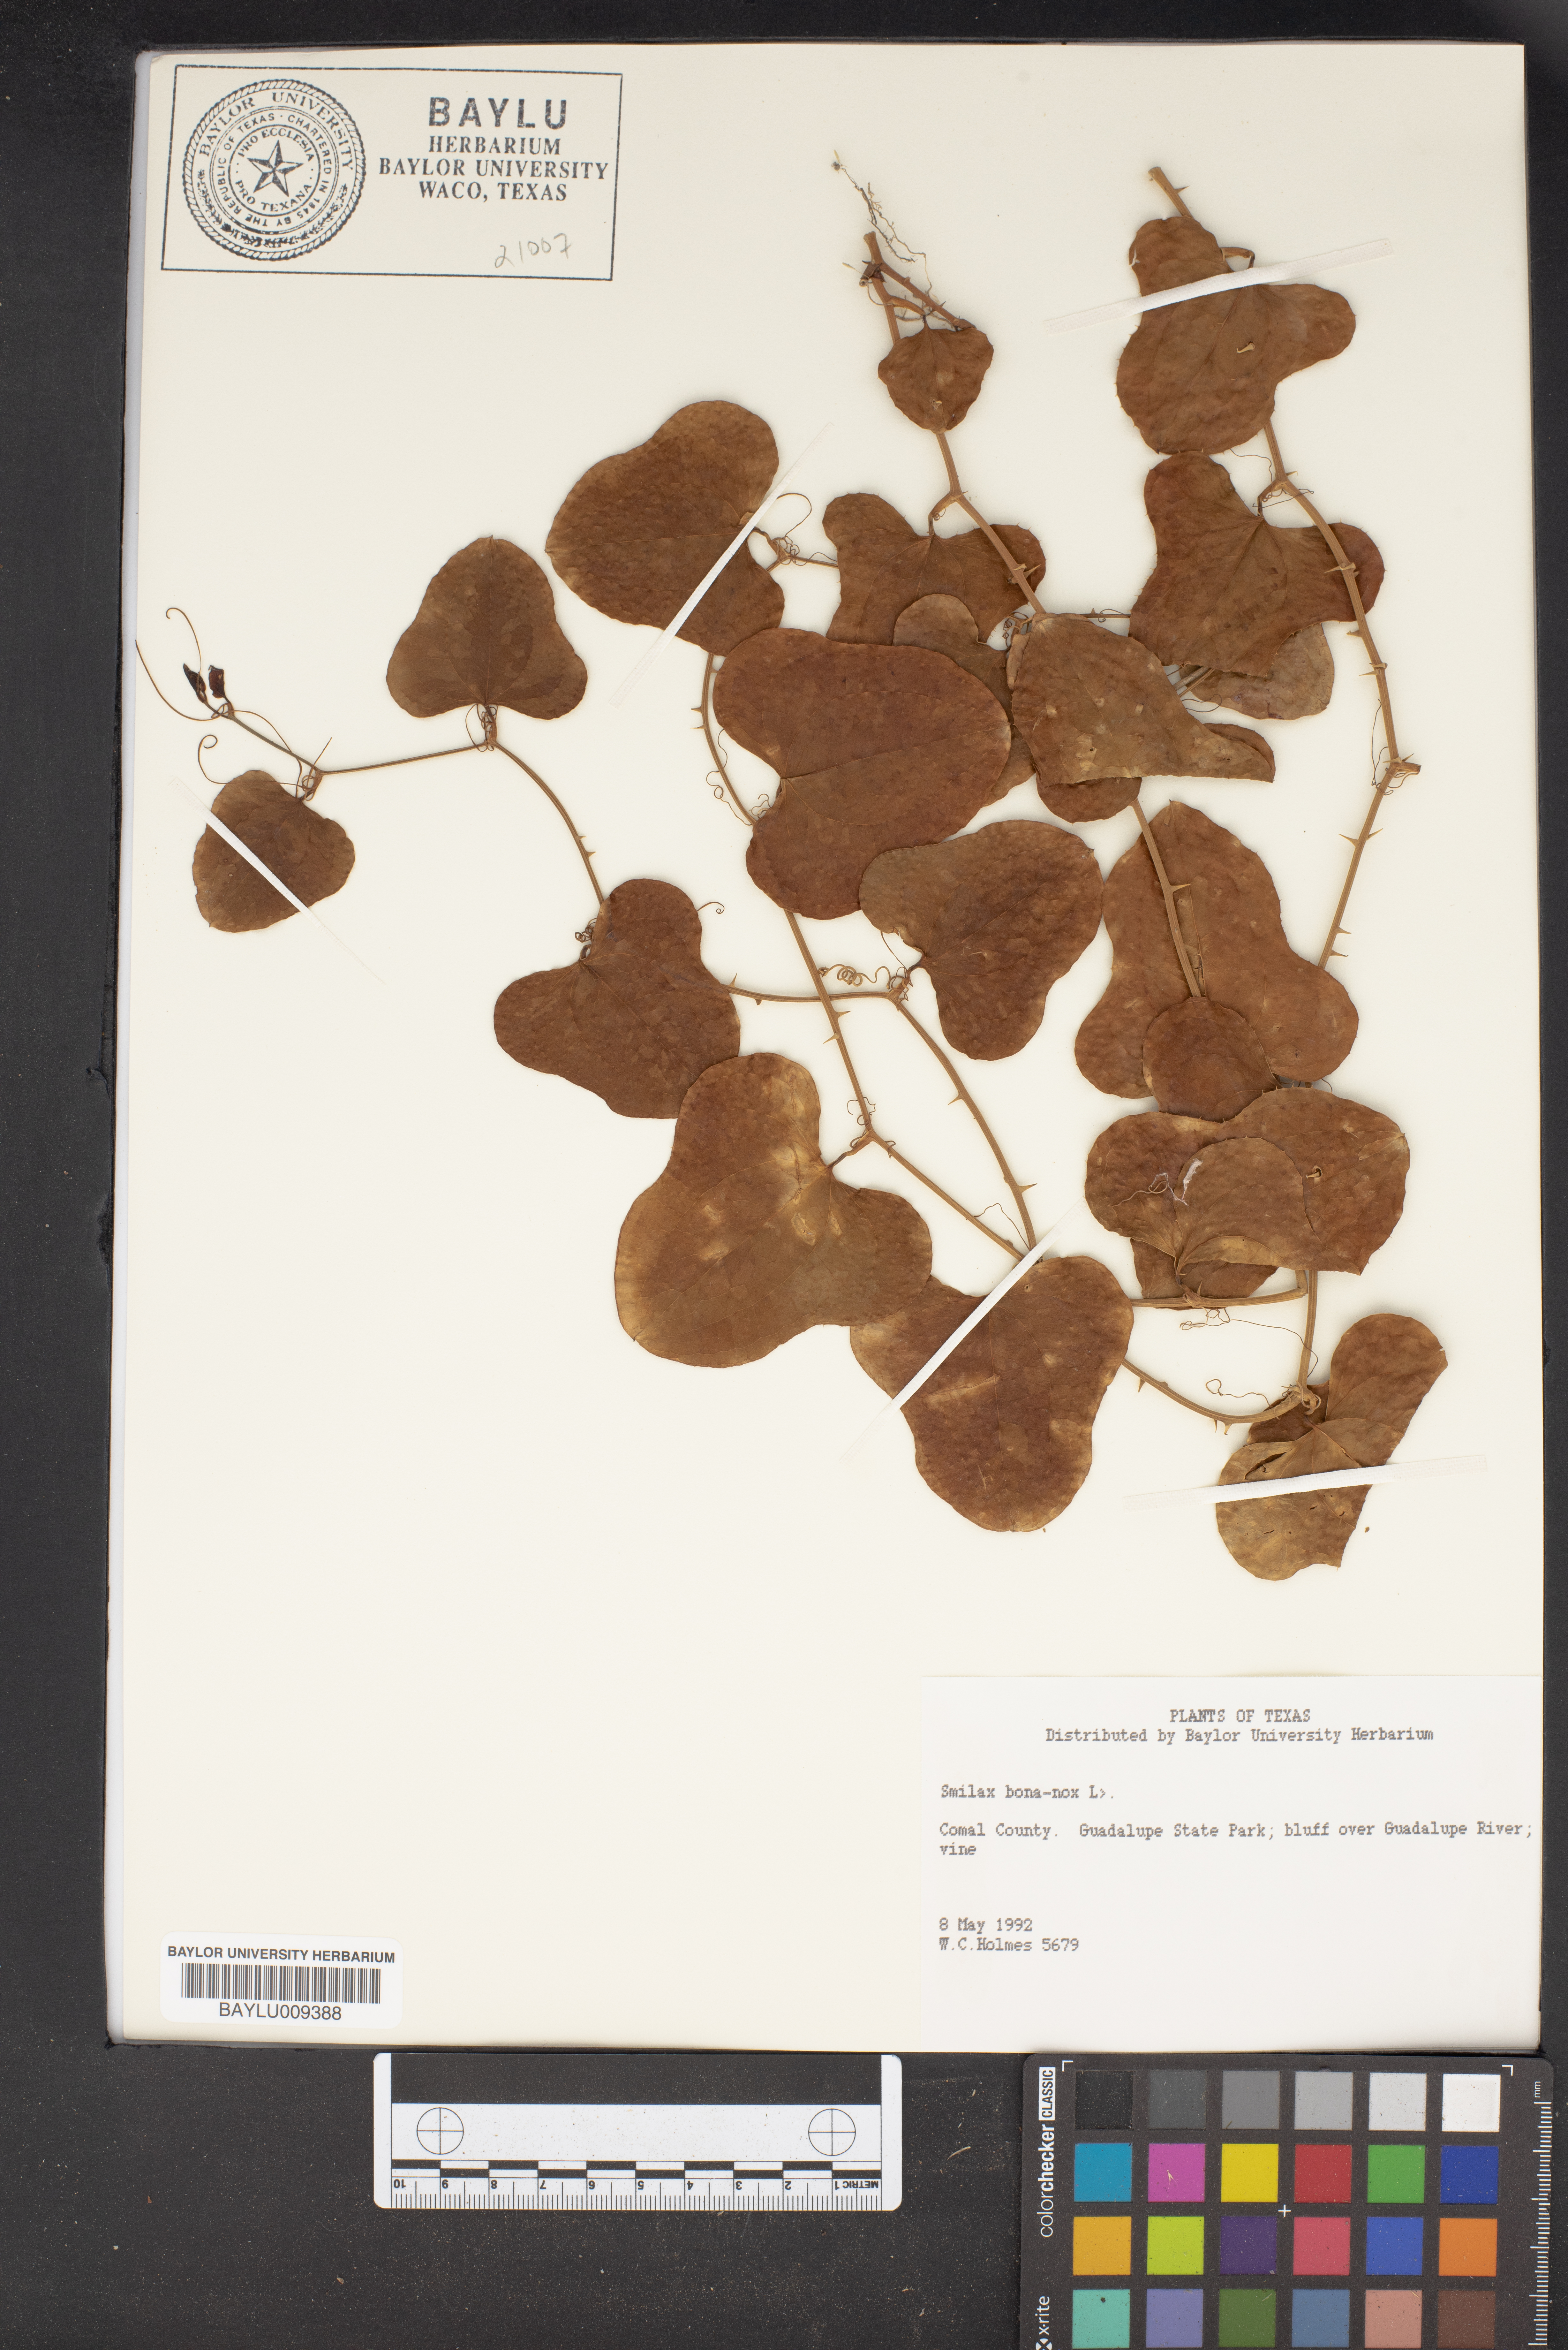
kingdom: Plantae
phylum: Tracheophyta
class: Liliopsida
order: Liliales
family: Smilacaceae
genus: Smilax
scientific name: Smilax bona-nox
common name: Catbrier
